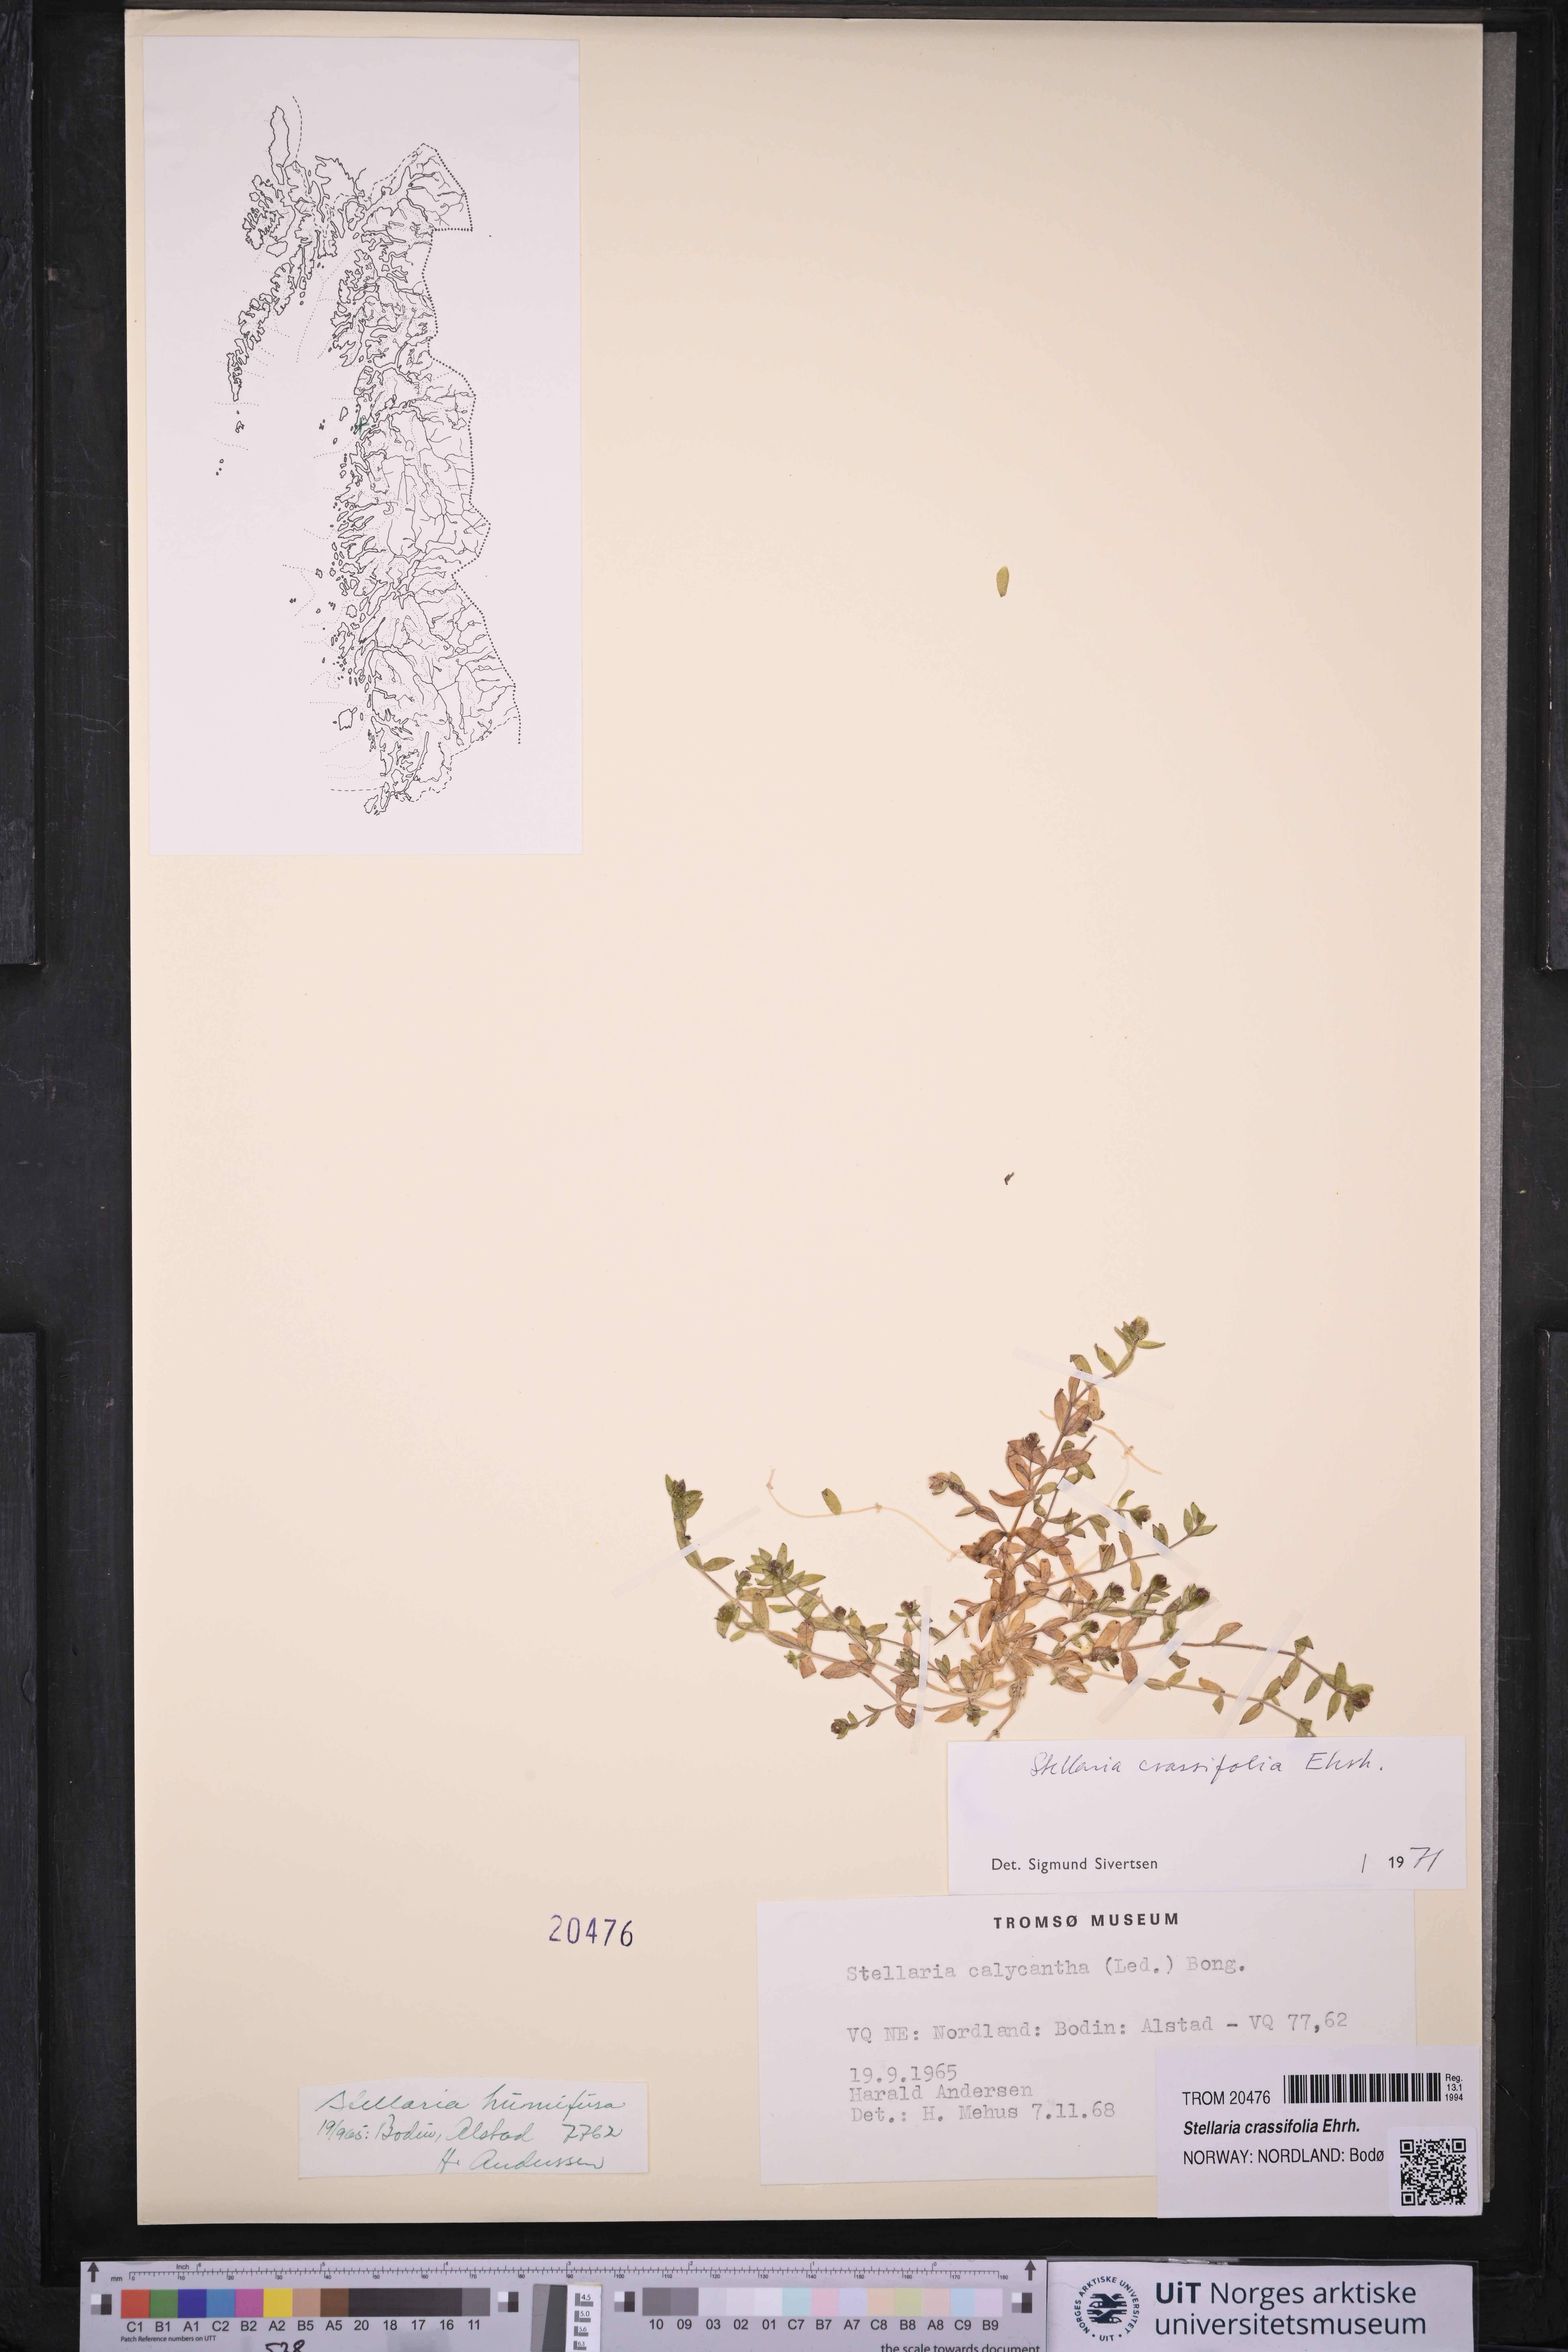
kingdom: Plantae
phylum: Tracheophyta
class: Magnoliopsida
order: Caryophyllales
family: Caryophyllaceae
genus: Stellaria
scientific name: Stellaria crassifolia
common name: Fleshy starwort
